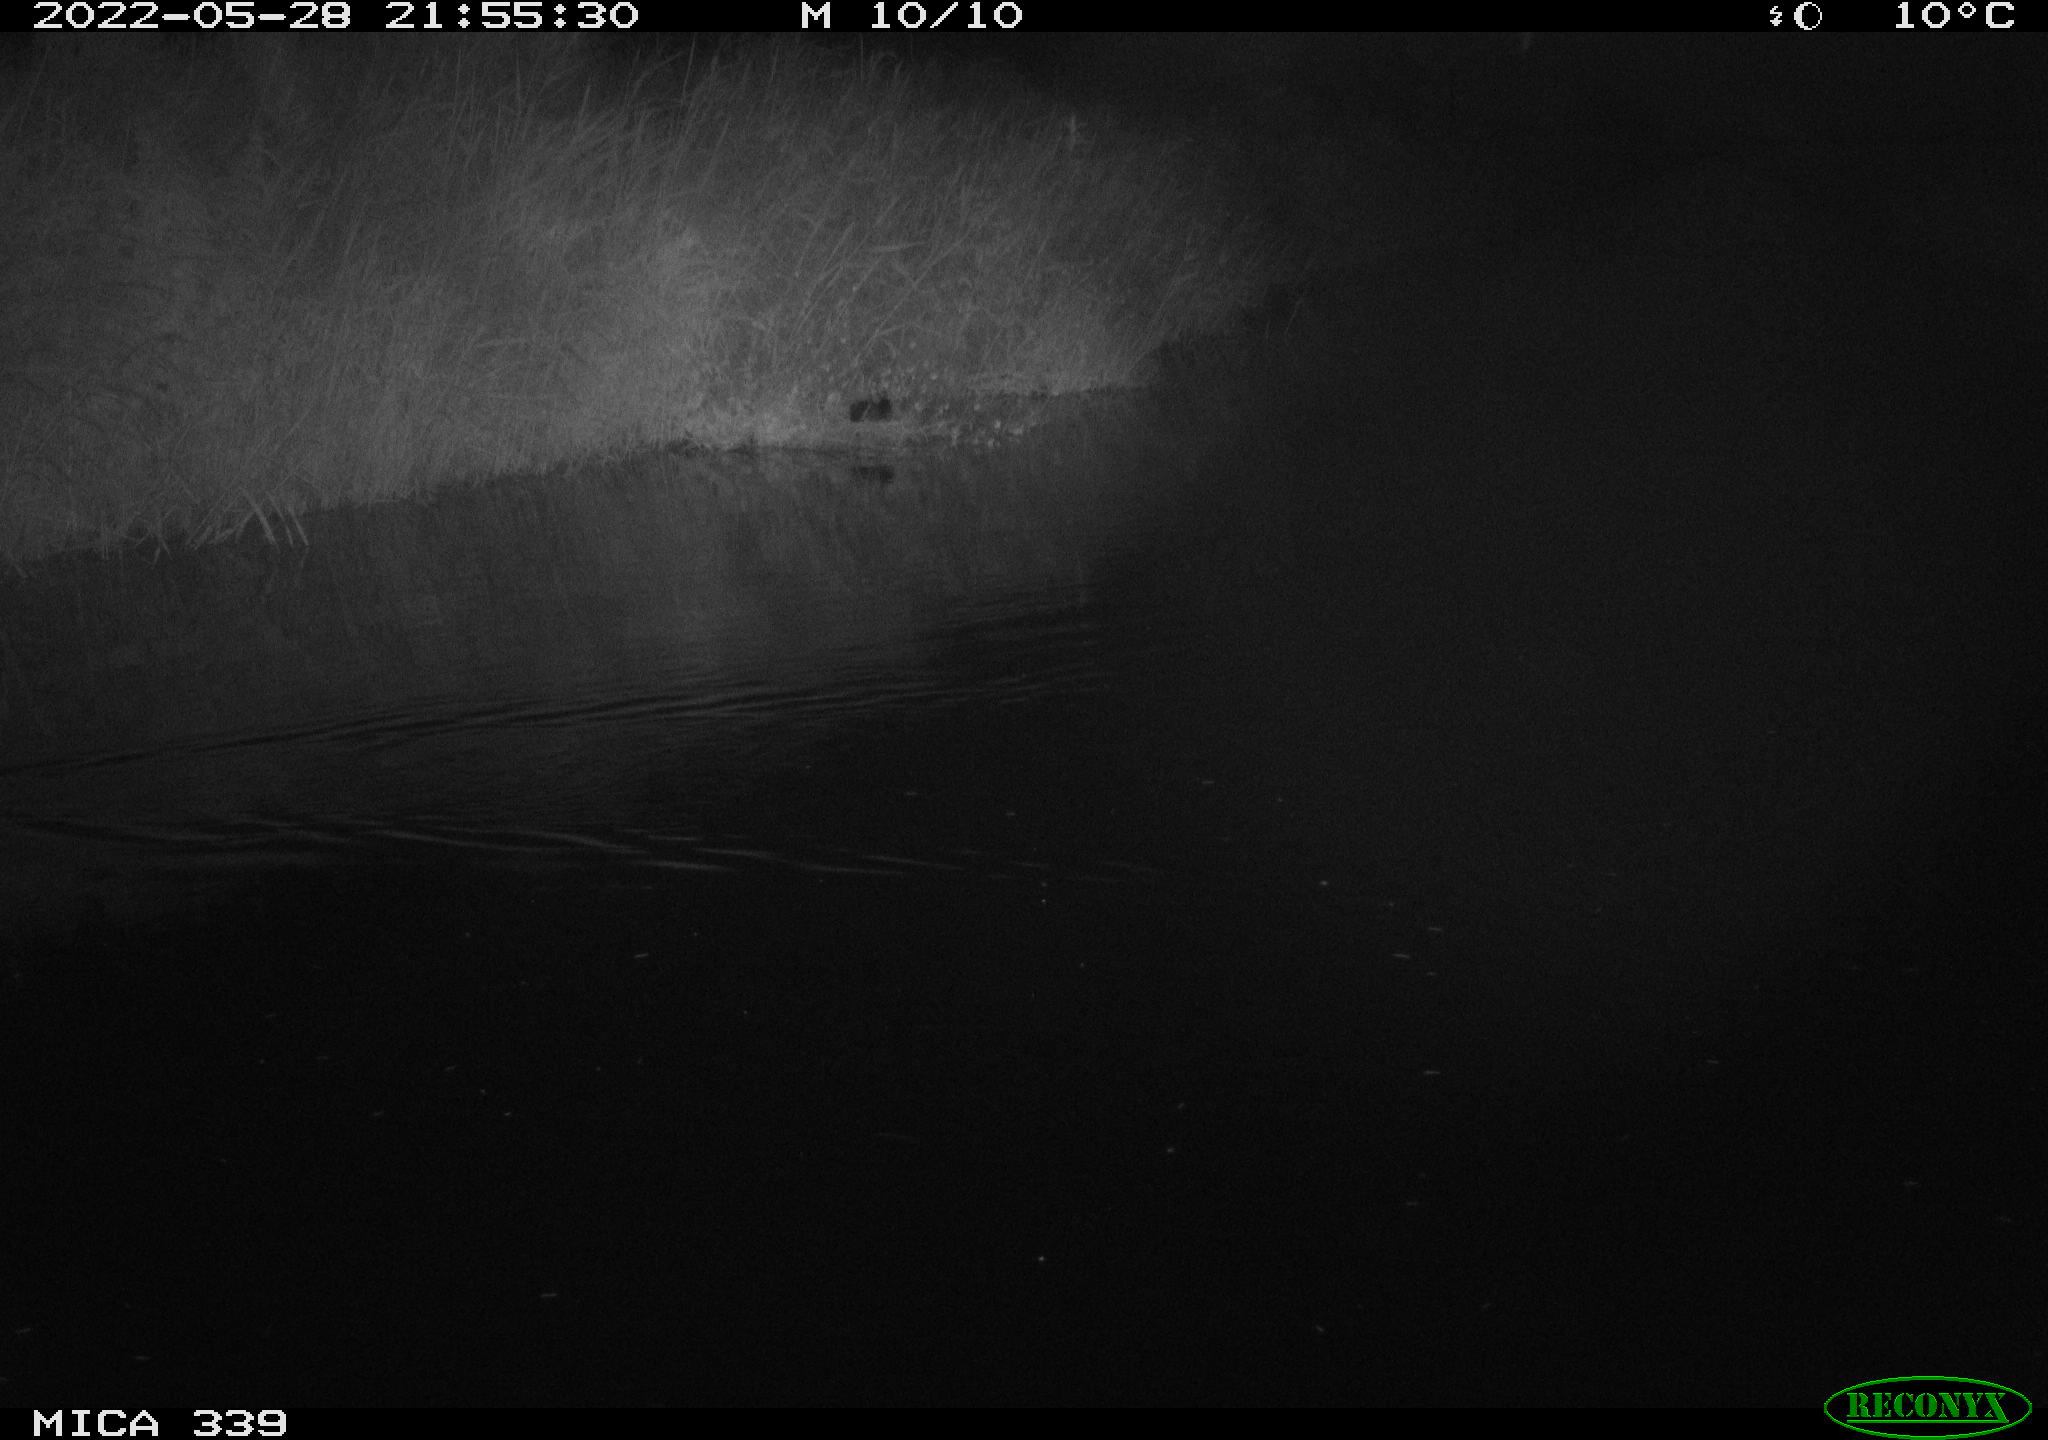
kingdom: Animalia
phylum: Chordata
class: Aves
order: Anseriformes
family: Anatidae
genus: Anas
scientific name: Anas platyrhynchos
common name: Mallard
